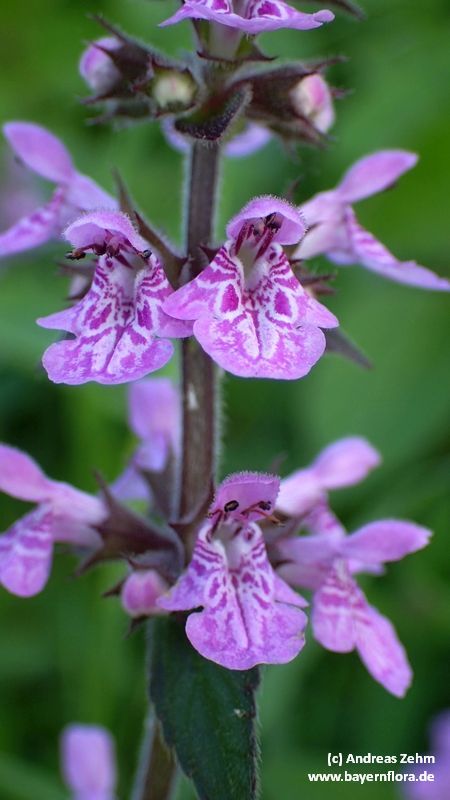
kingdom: Plantae
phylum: Tracheophyta
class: Magnoliopsida
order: Lamiales
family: Lamiaceae
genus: Stachys
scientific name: Stachys palustris
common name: Marsh woundwort
